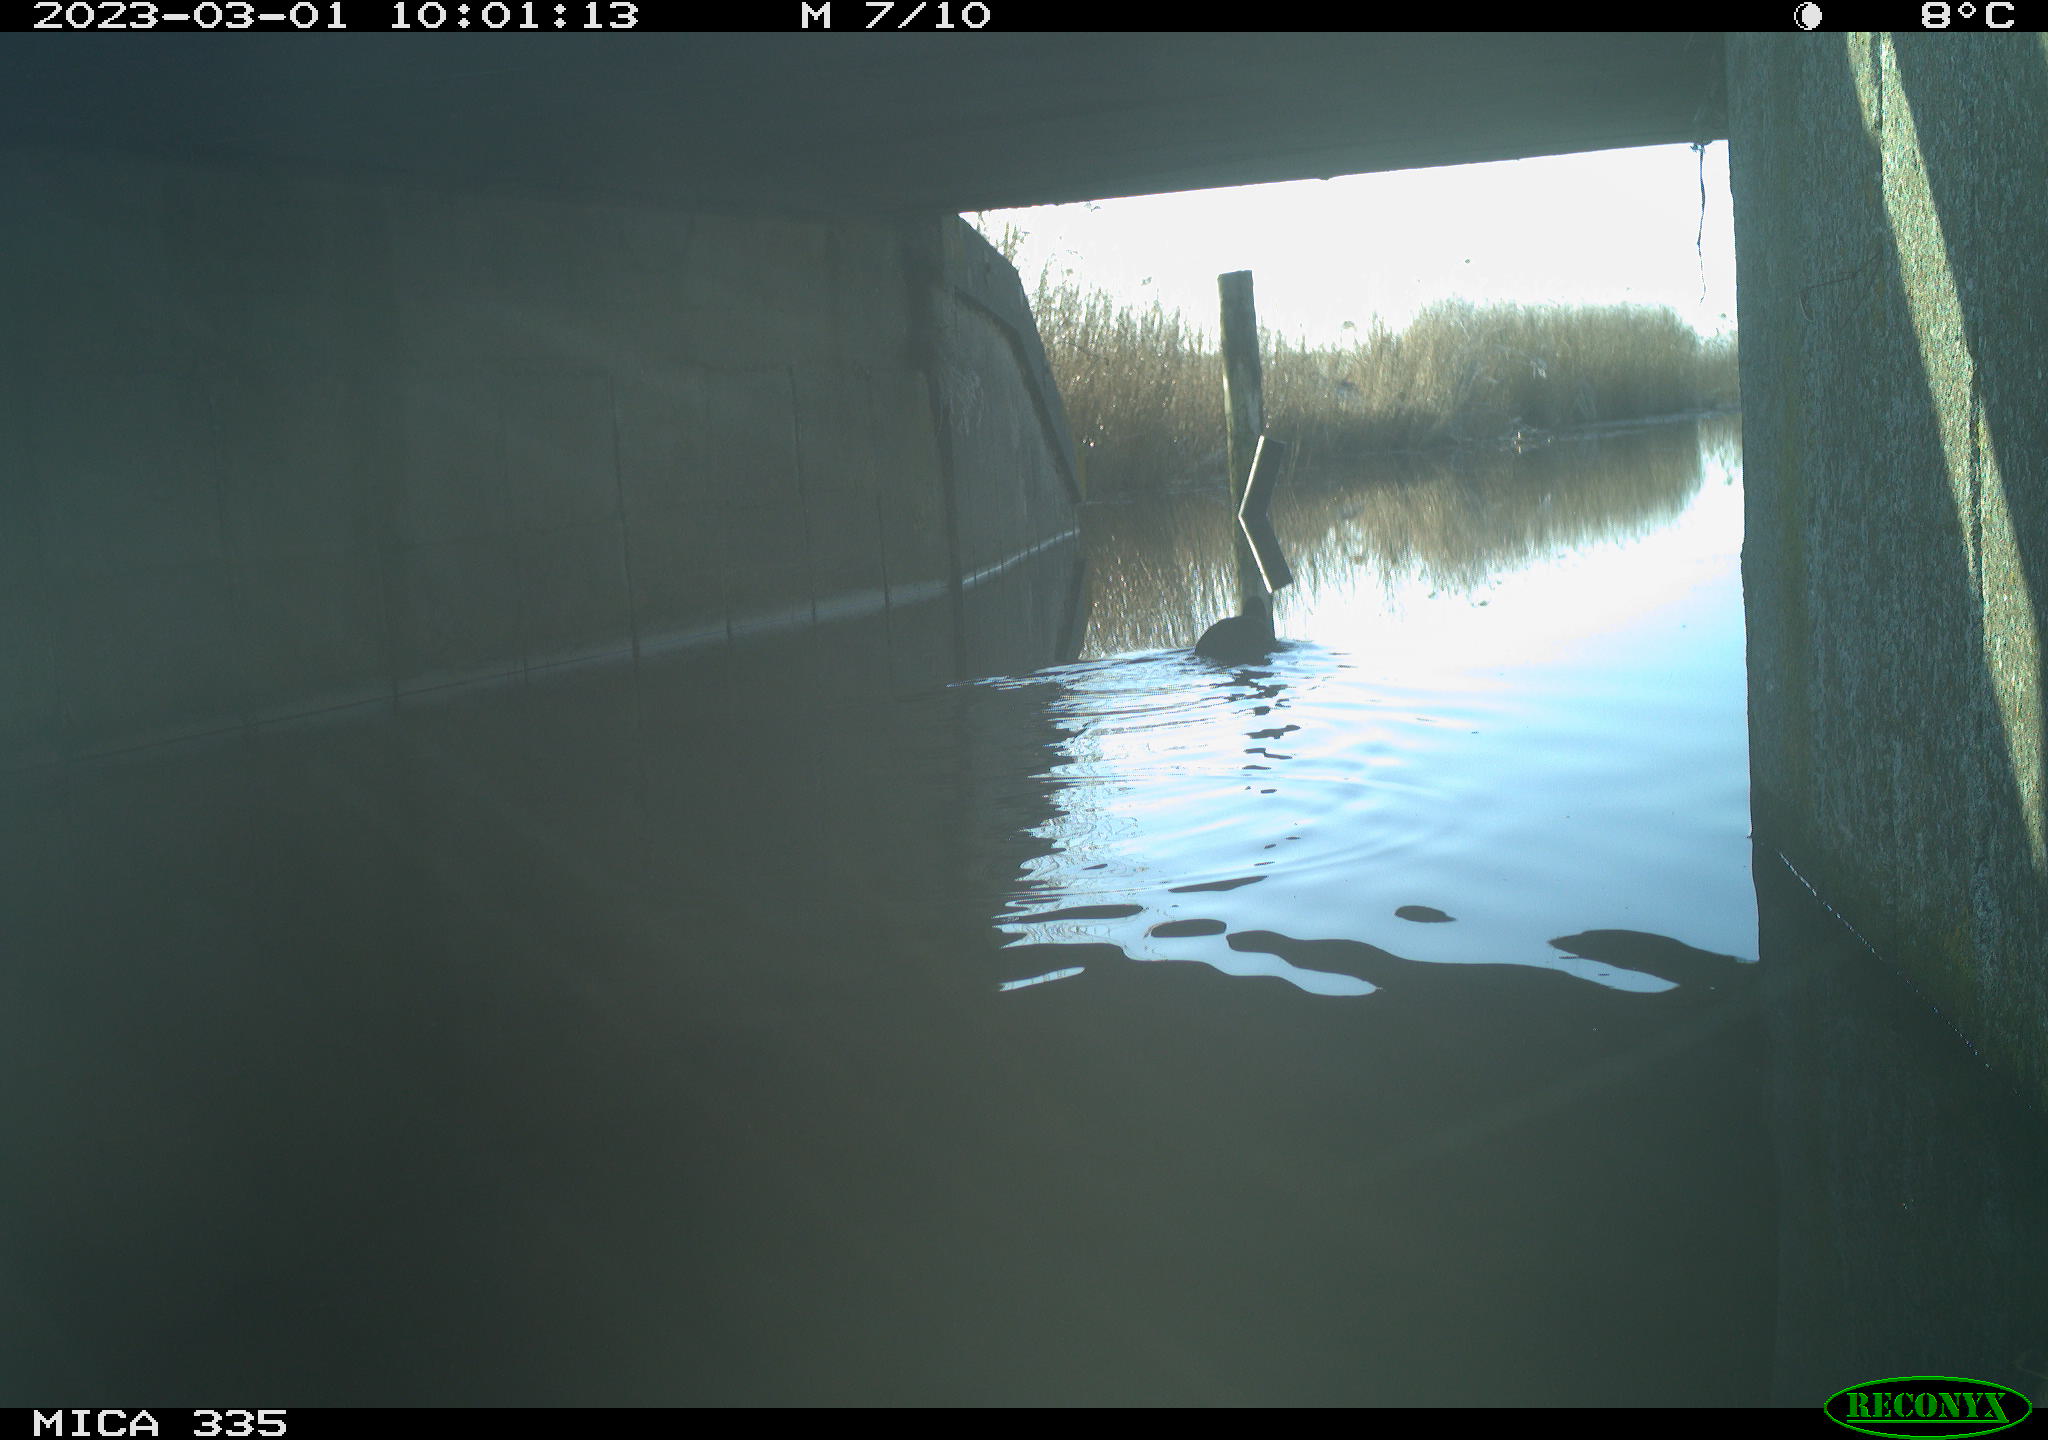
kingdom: Animalia
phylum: Chordata
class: Aves
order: Gruiformes
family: Rallidae
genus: Gallinula
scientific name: Gallinula chloropus
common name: Common moorhen
